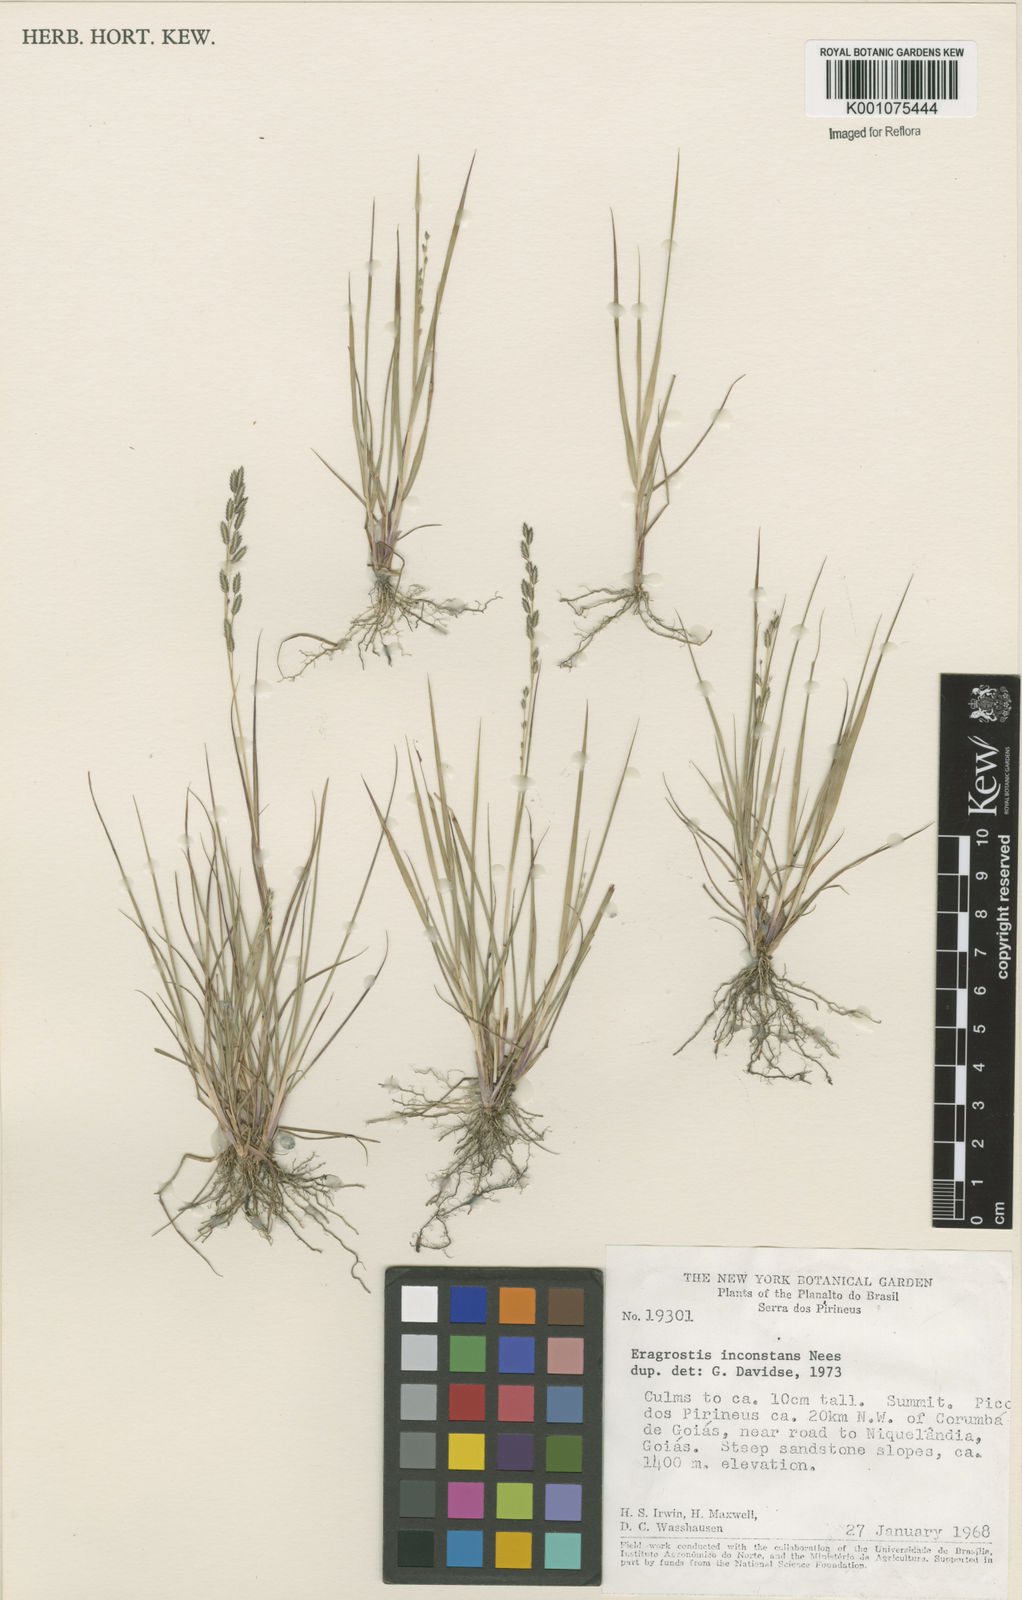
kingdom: Plantae
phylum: Tracheophyta
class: Liliopsida
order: Poales
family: Poaceae
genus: Eragrostis
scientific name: Eragrostis rufescens
